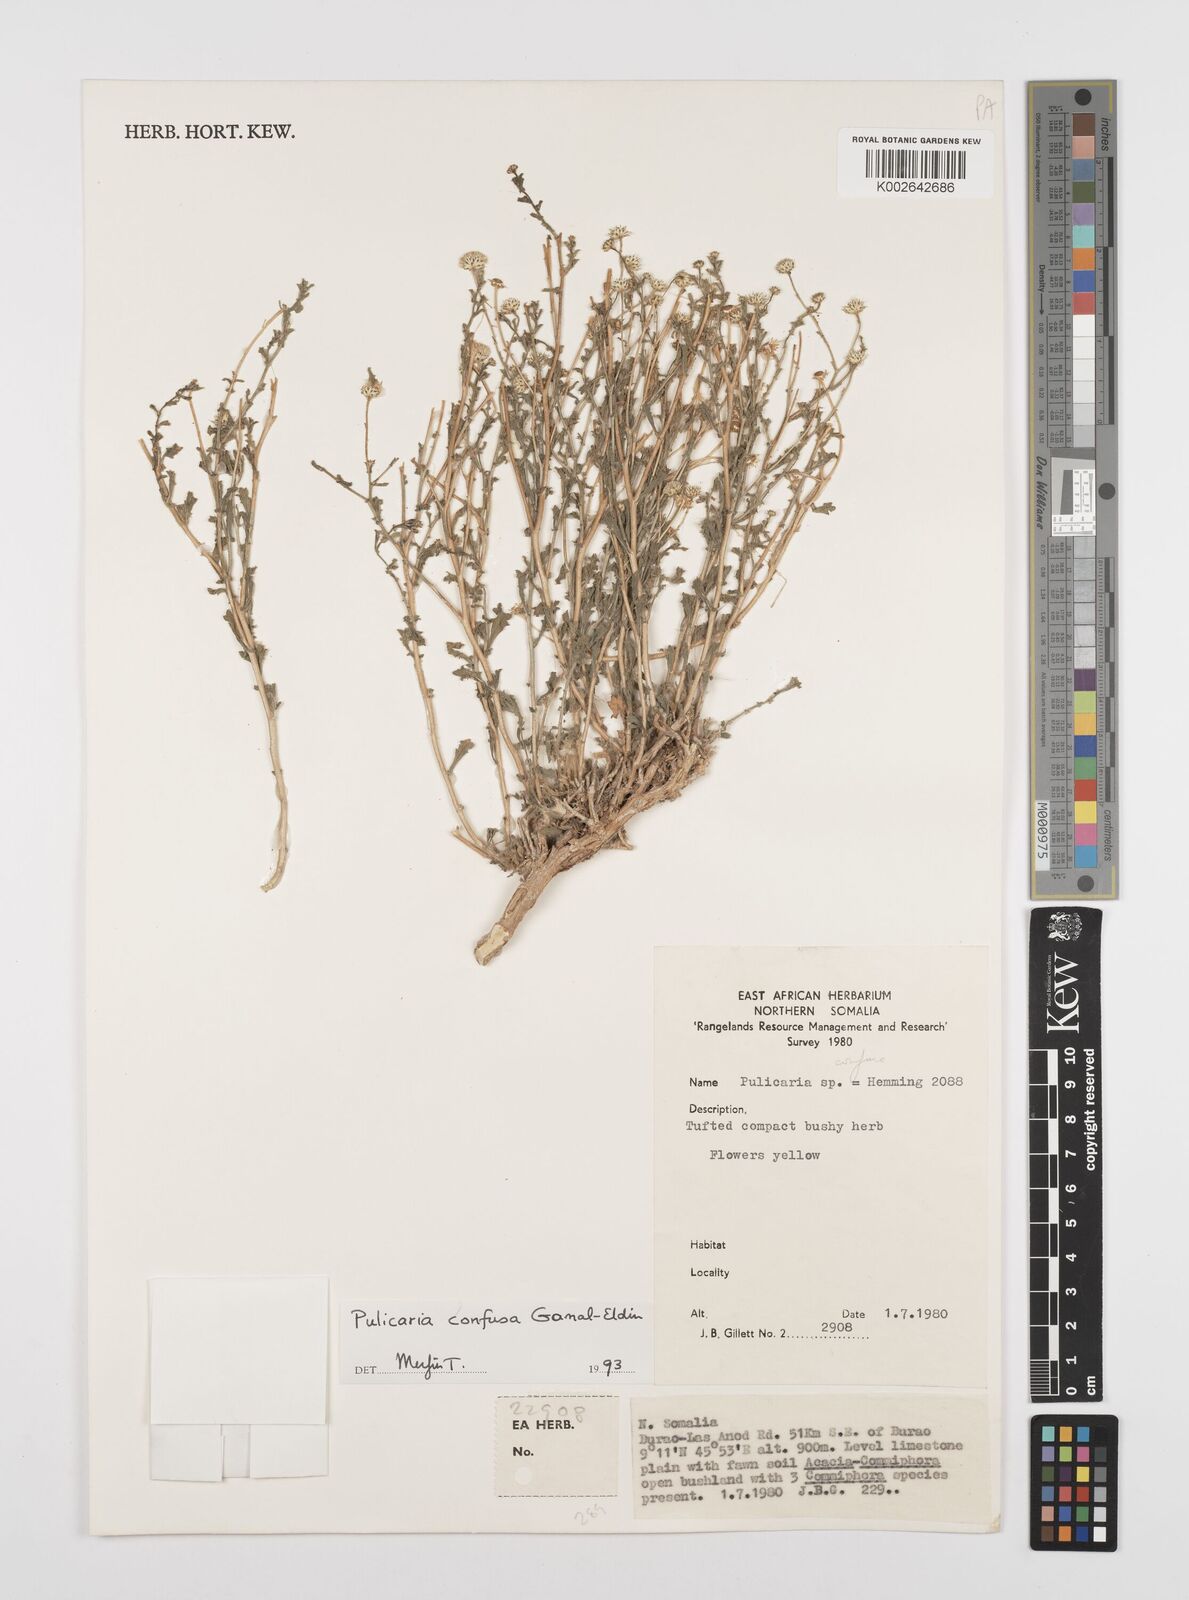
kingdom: Plantae
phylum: Tracheophyta
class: Magnoliopsida
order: Asterales
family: Asteraceae
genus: Pulicaria
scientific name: Pulicaria confusa
